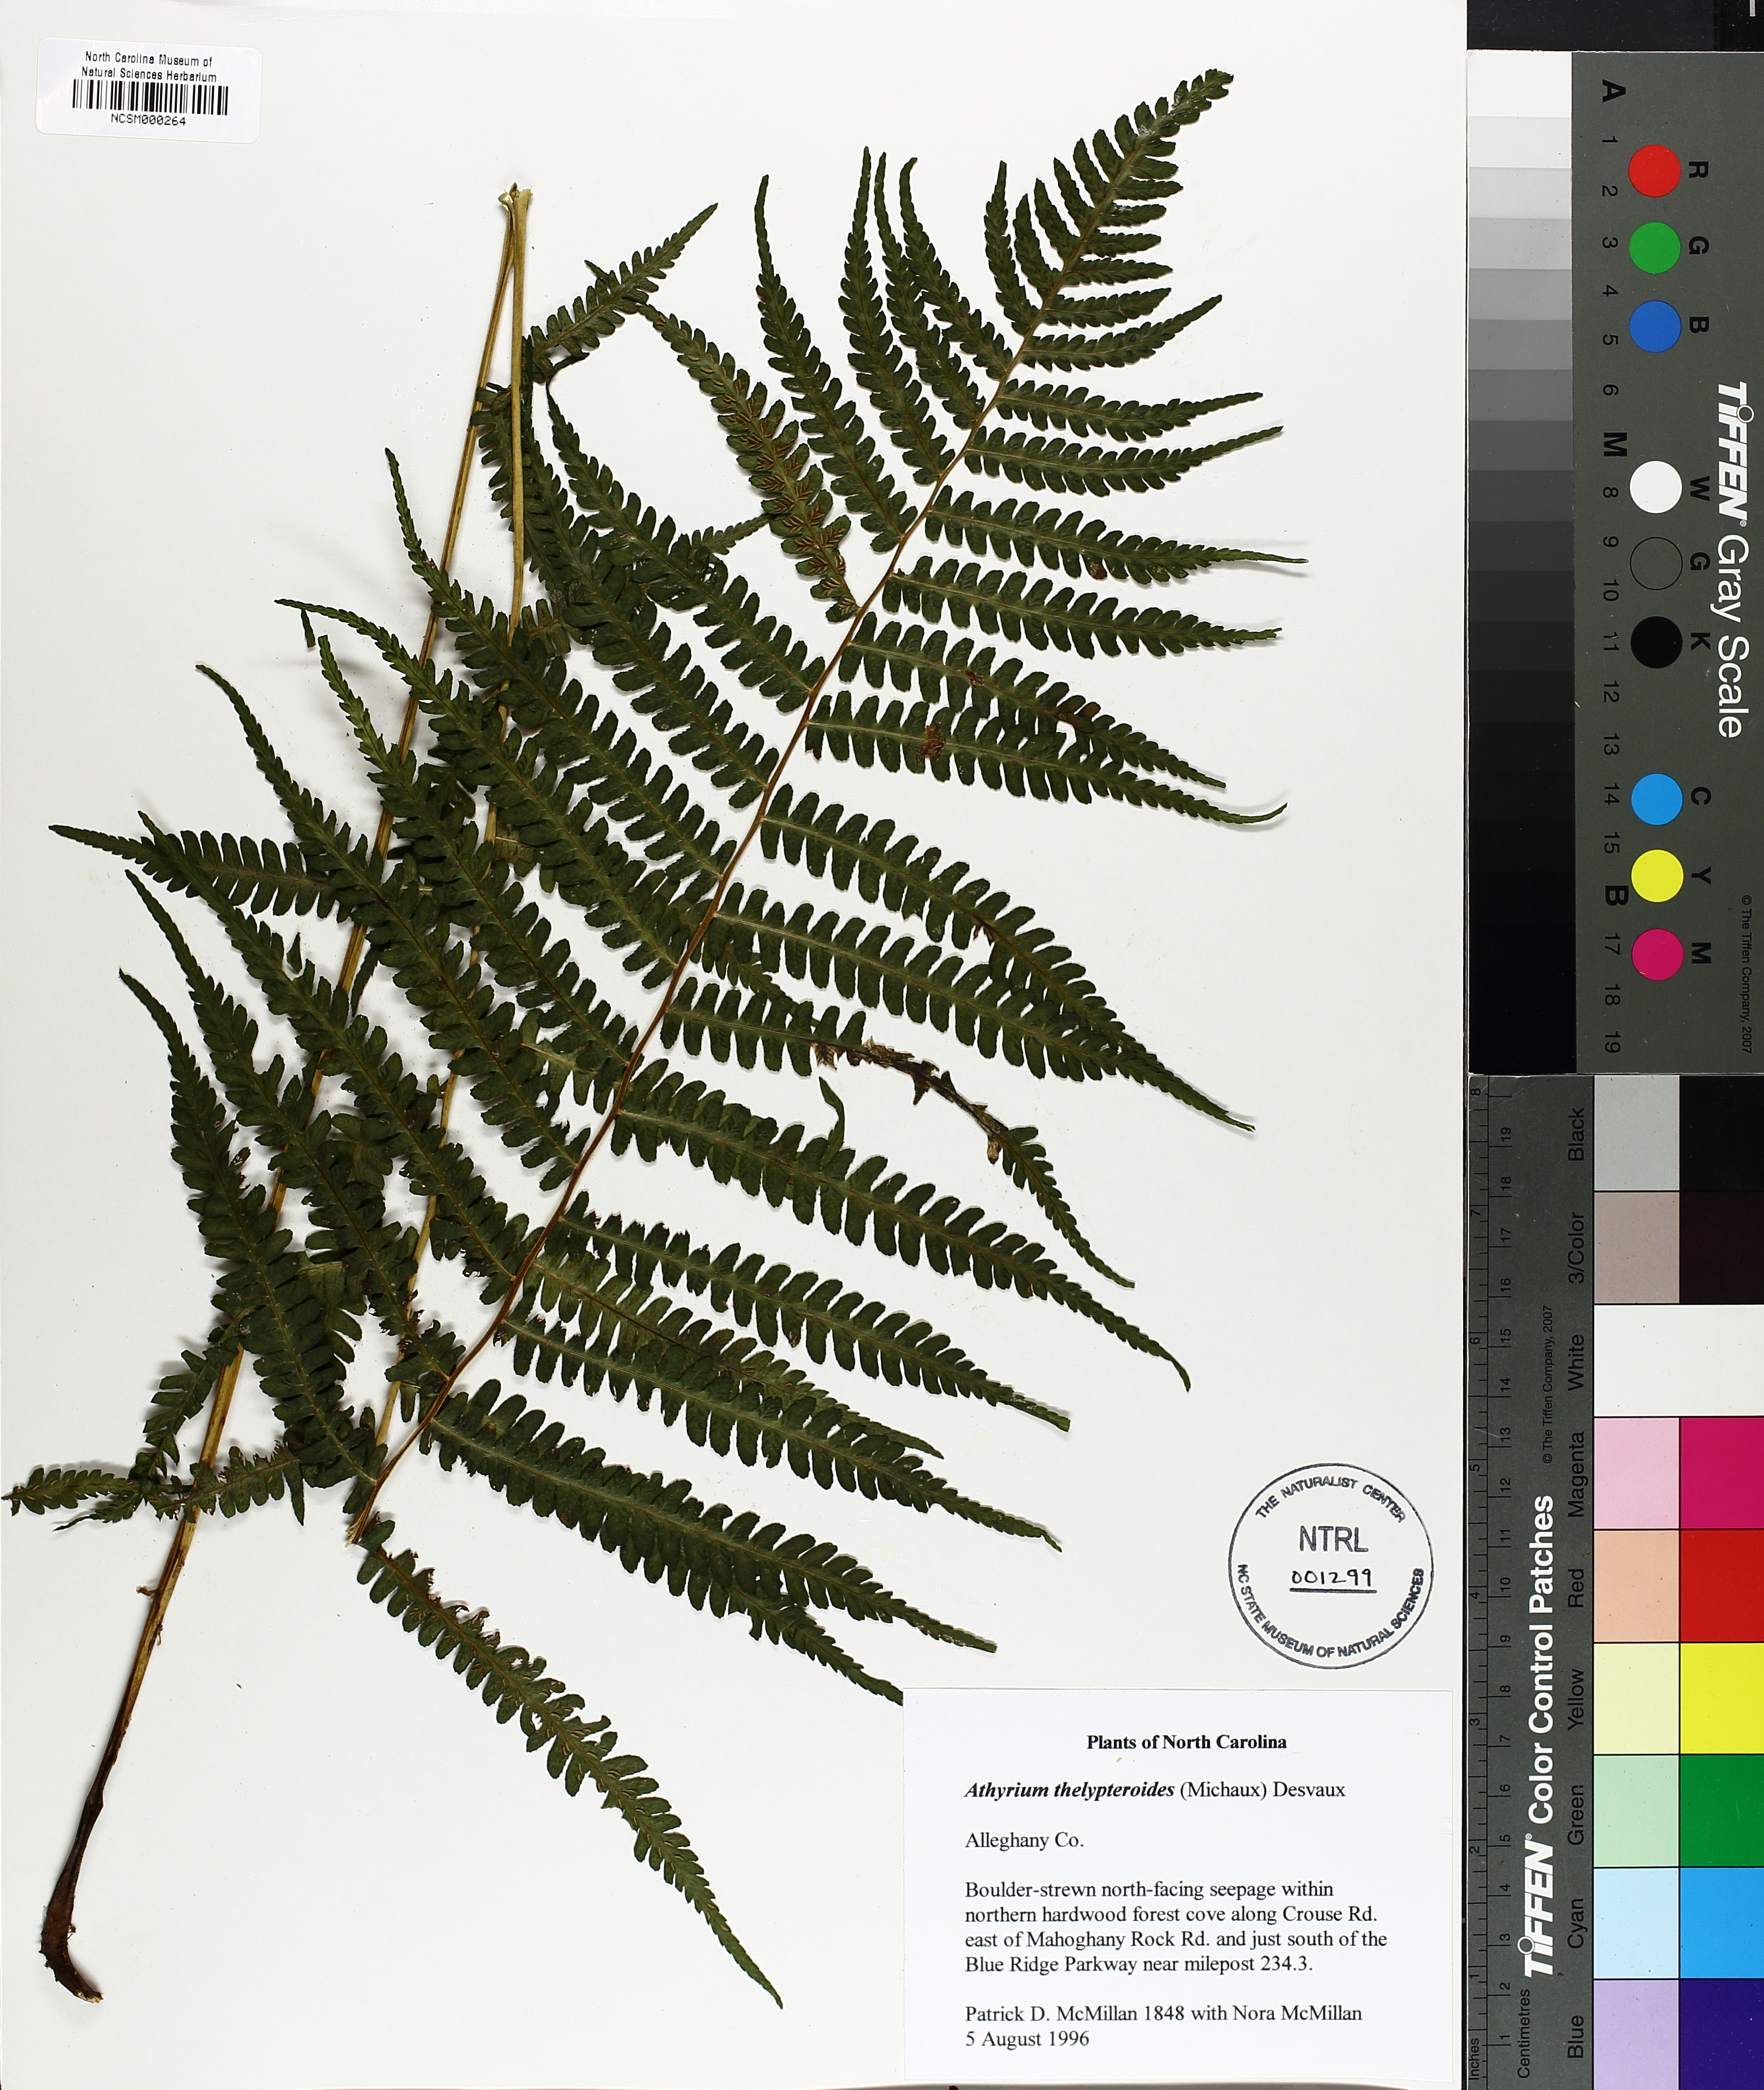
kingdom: Plantae
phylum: Tracheophyta
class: Polypodiopsida
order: Polypodiales
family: Athyriaceae
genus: Deparia
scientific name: Deparia acrostichoides
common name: Silver false spleenwort
